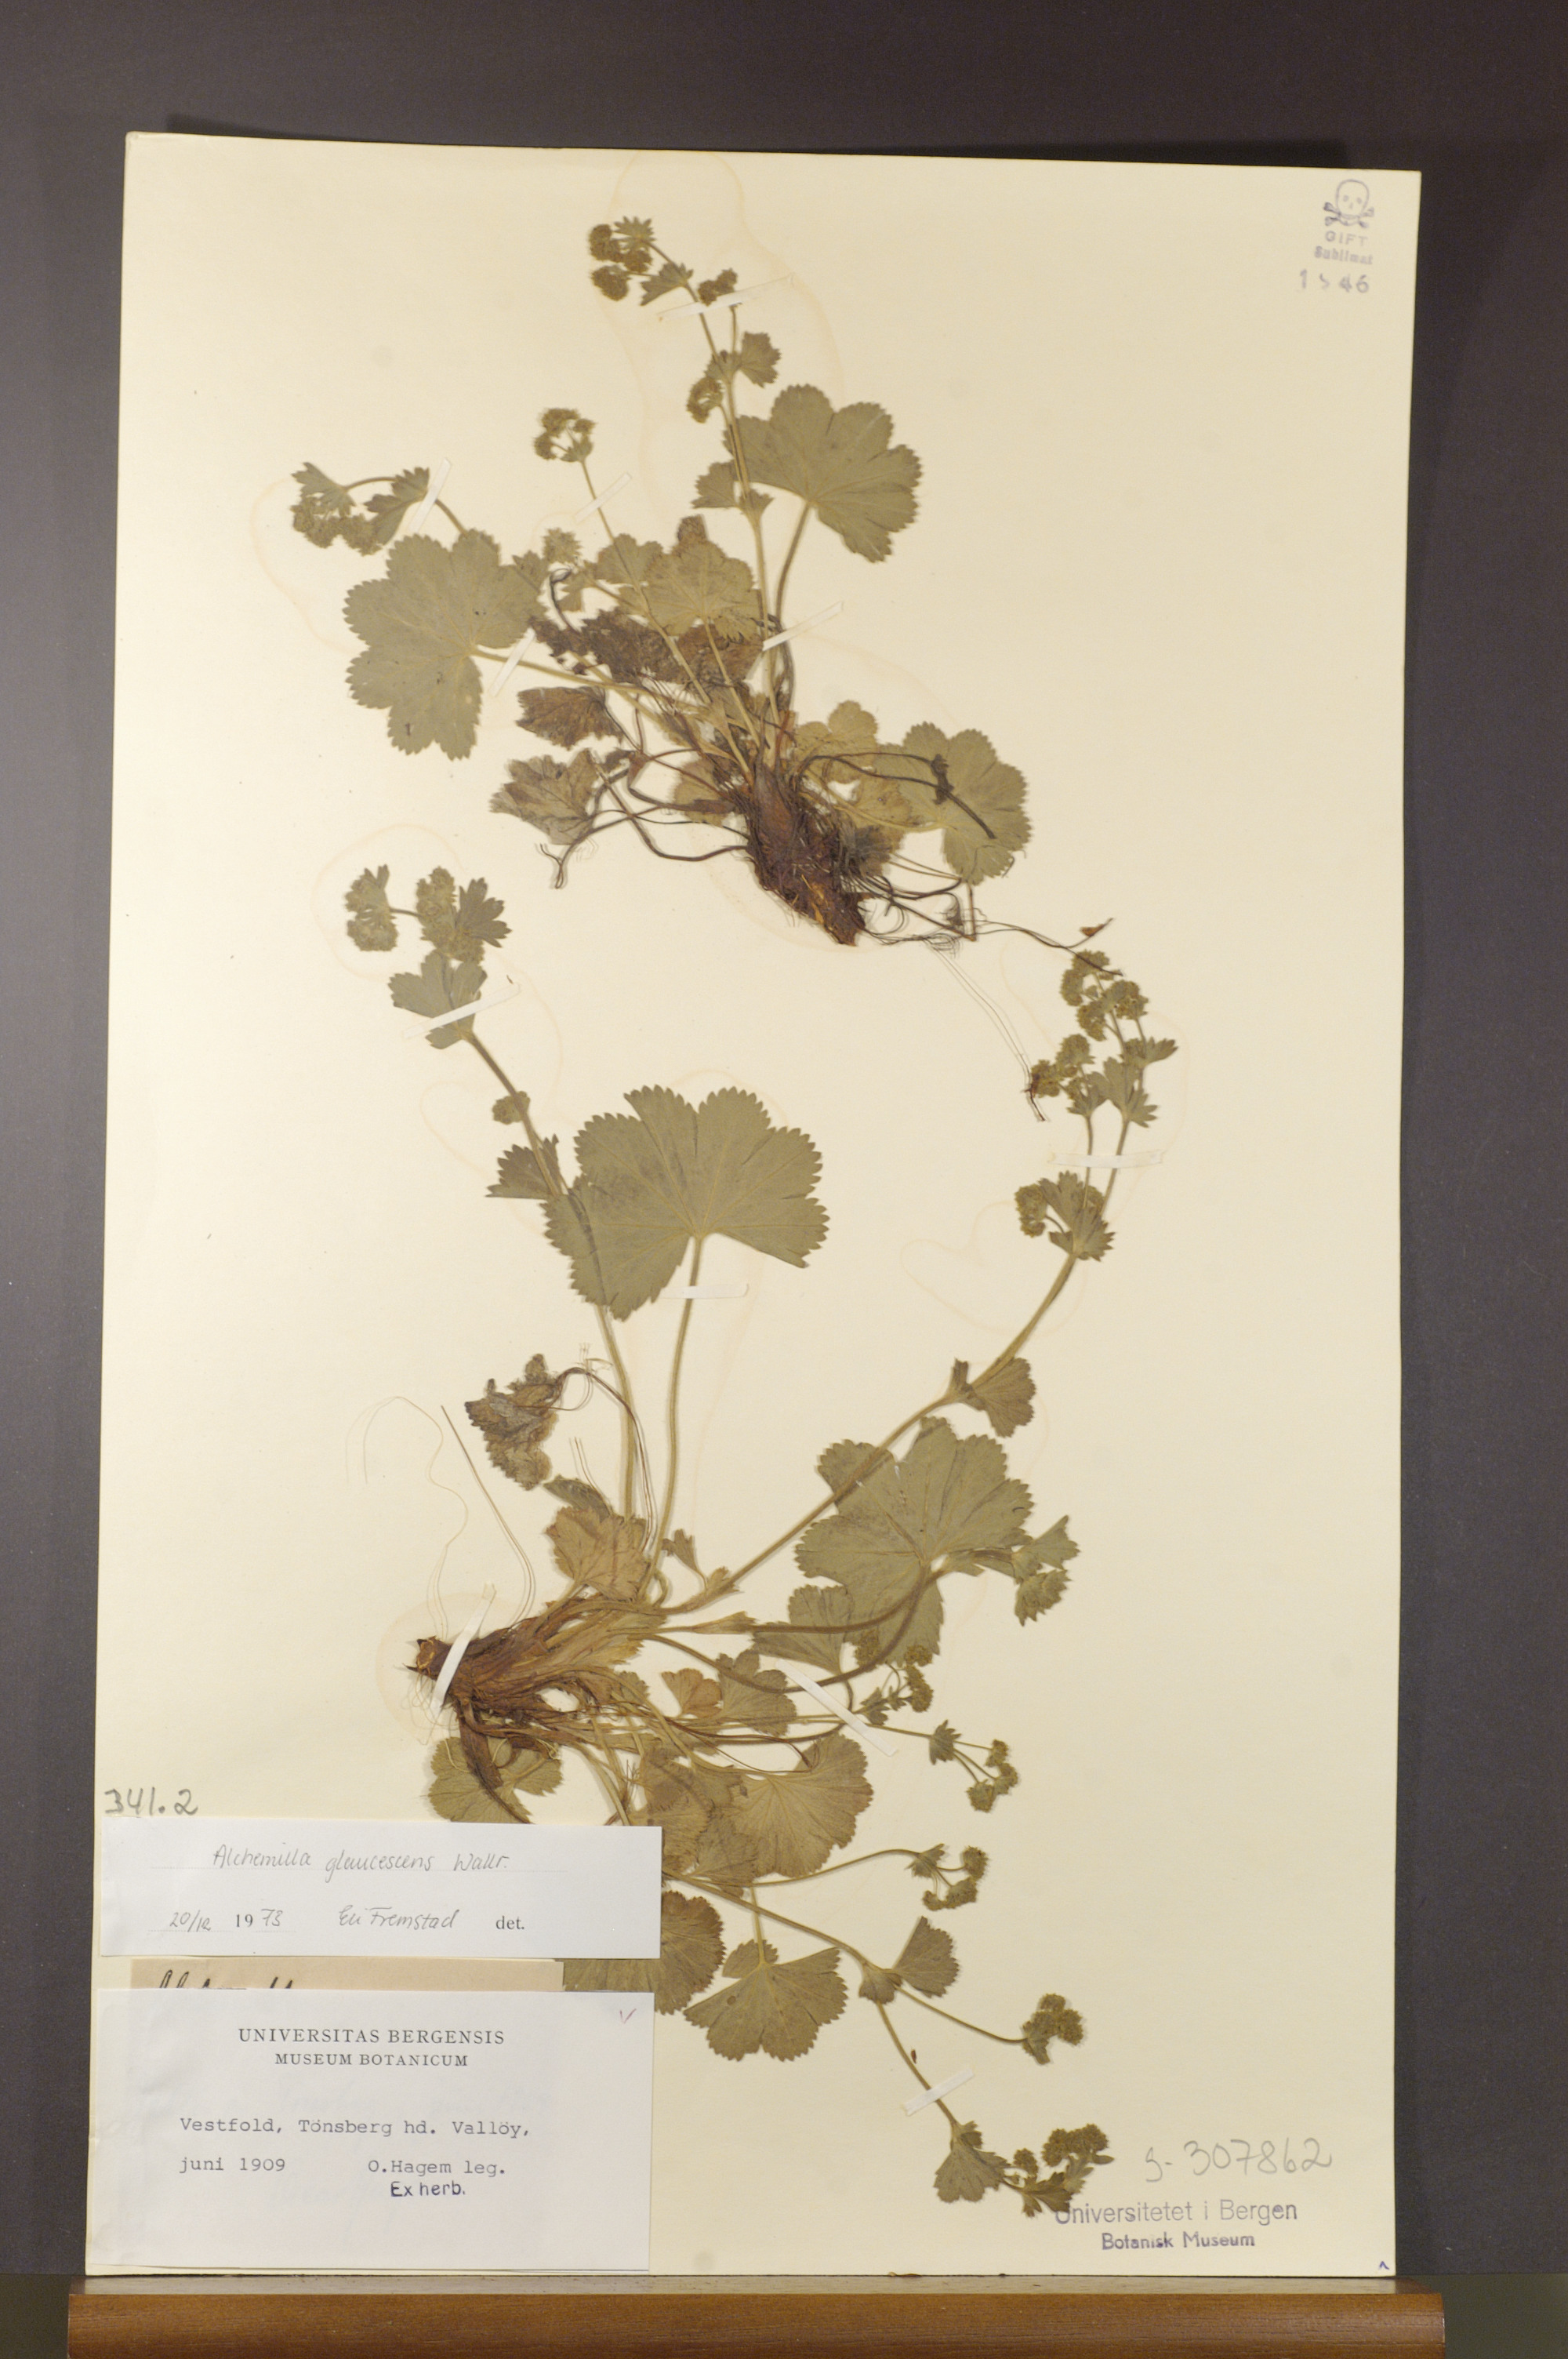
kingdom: Plantae
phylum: Tracheophyta
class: Magnoliopsida
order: Rosales
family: Rosaceae
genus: Alchemilla
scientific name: Alchemilla glaucescens
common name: Silky lady's mantle
